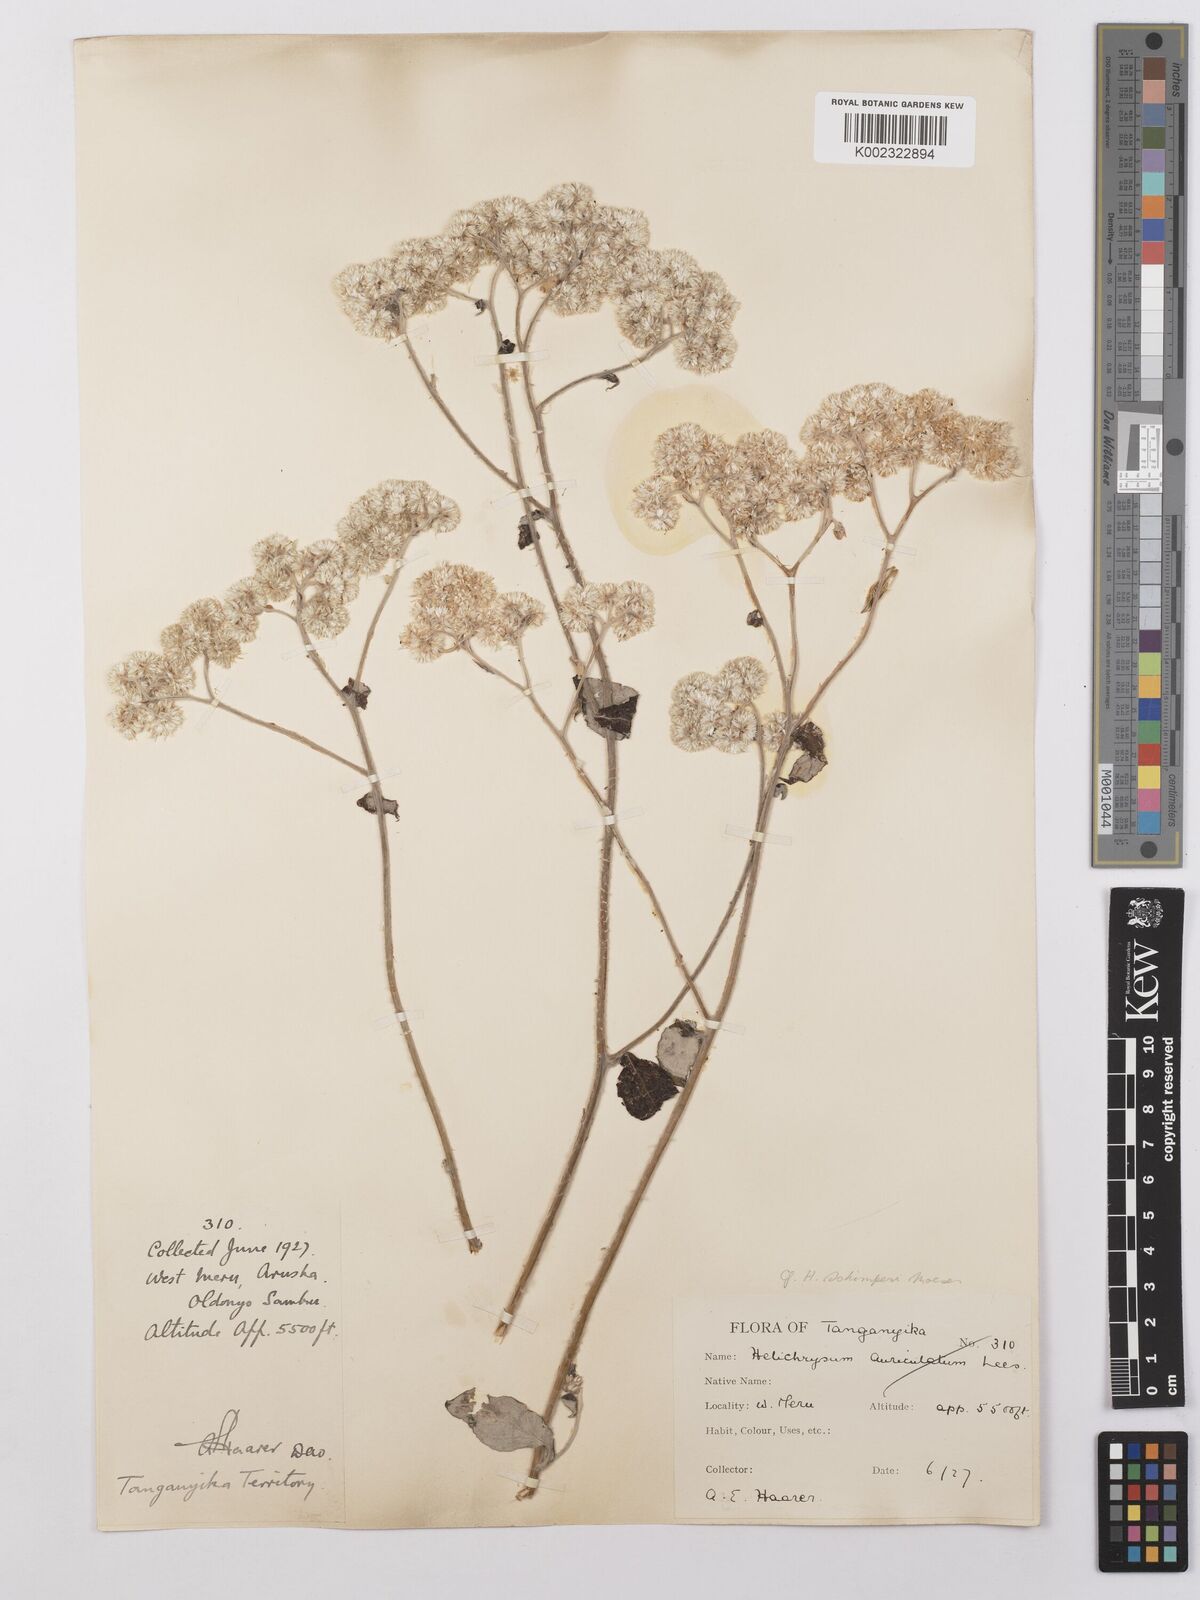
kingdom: Plantae
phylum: Tracheophyta
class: Magnoliopsida
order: Asterales
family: Asteraceae
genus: Helichrysum
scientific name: Helichrysum schimperi
